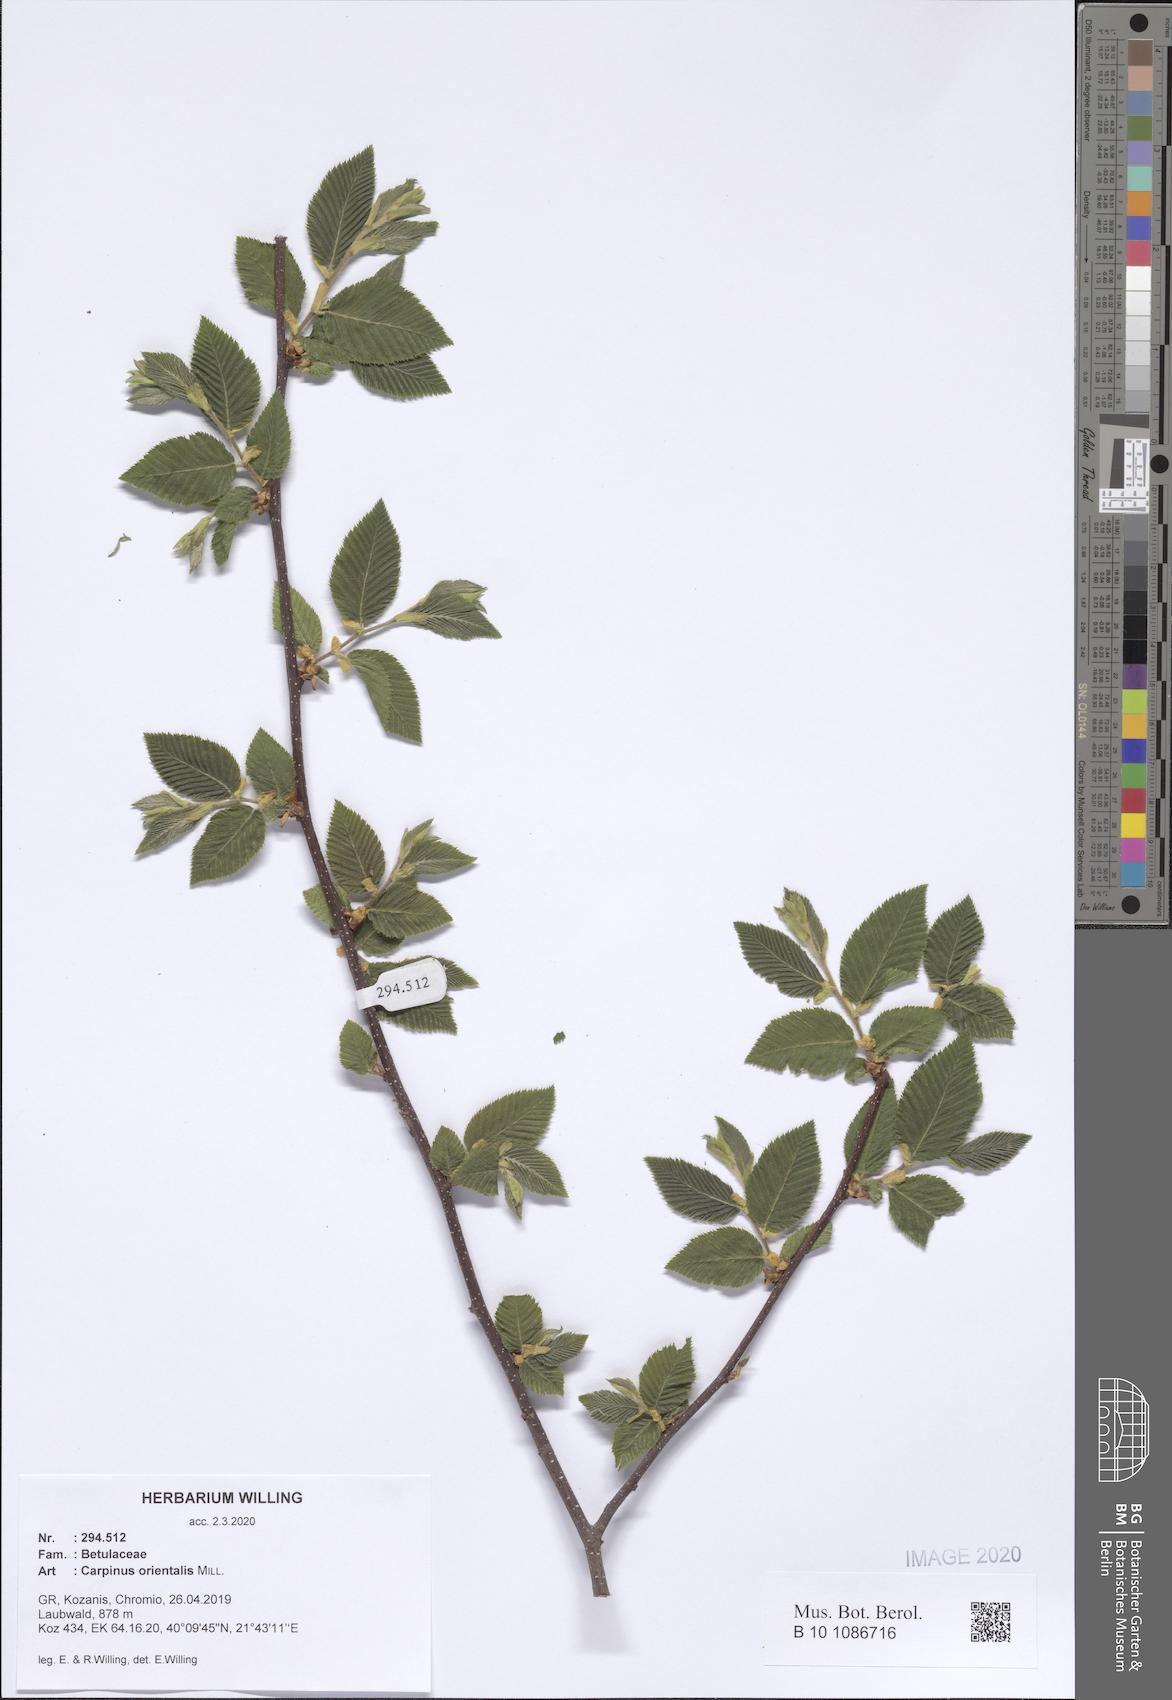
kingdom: Plantae
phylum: Tracheophyta
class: Magnoliopsida
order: Fagales
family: Betulaceae
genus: Carpinus
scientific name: Carpinus orientalis
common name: Eastern hornbeam
